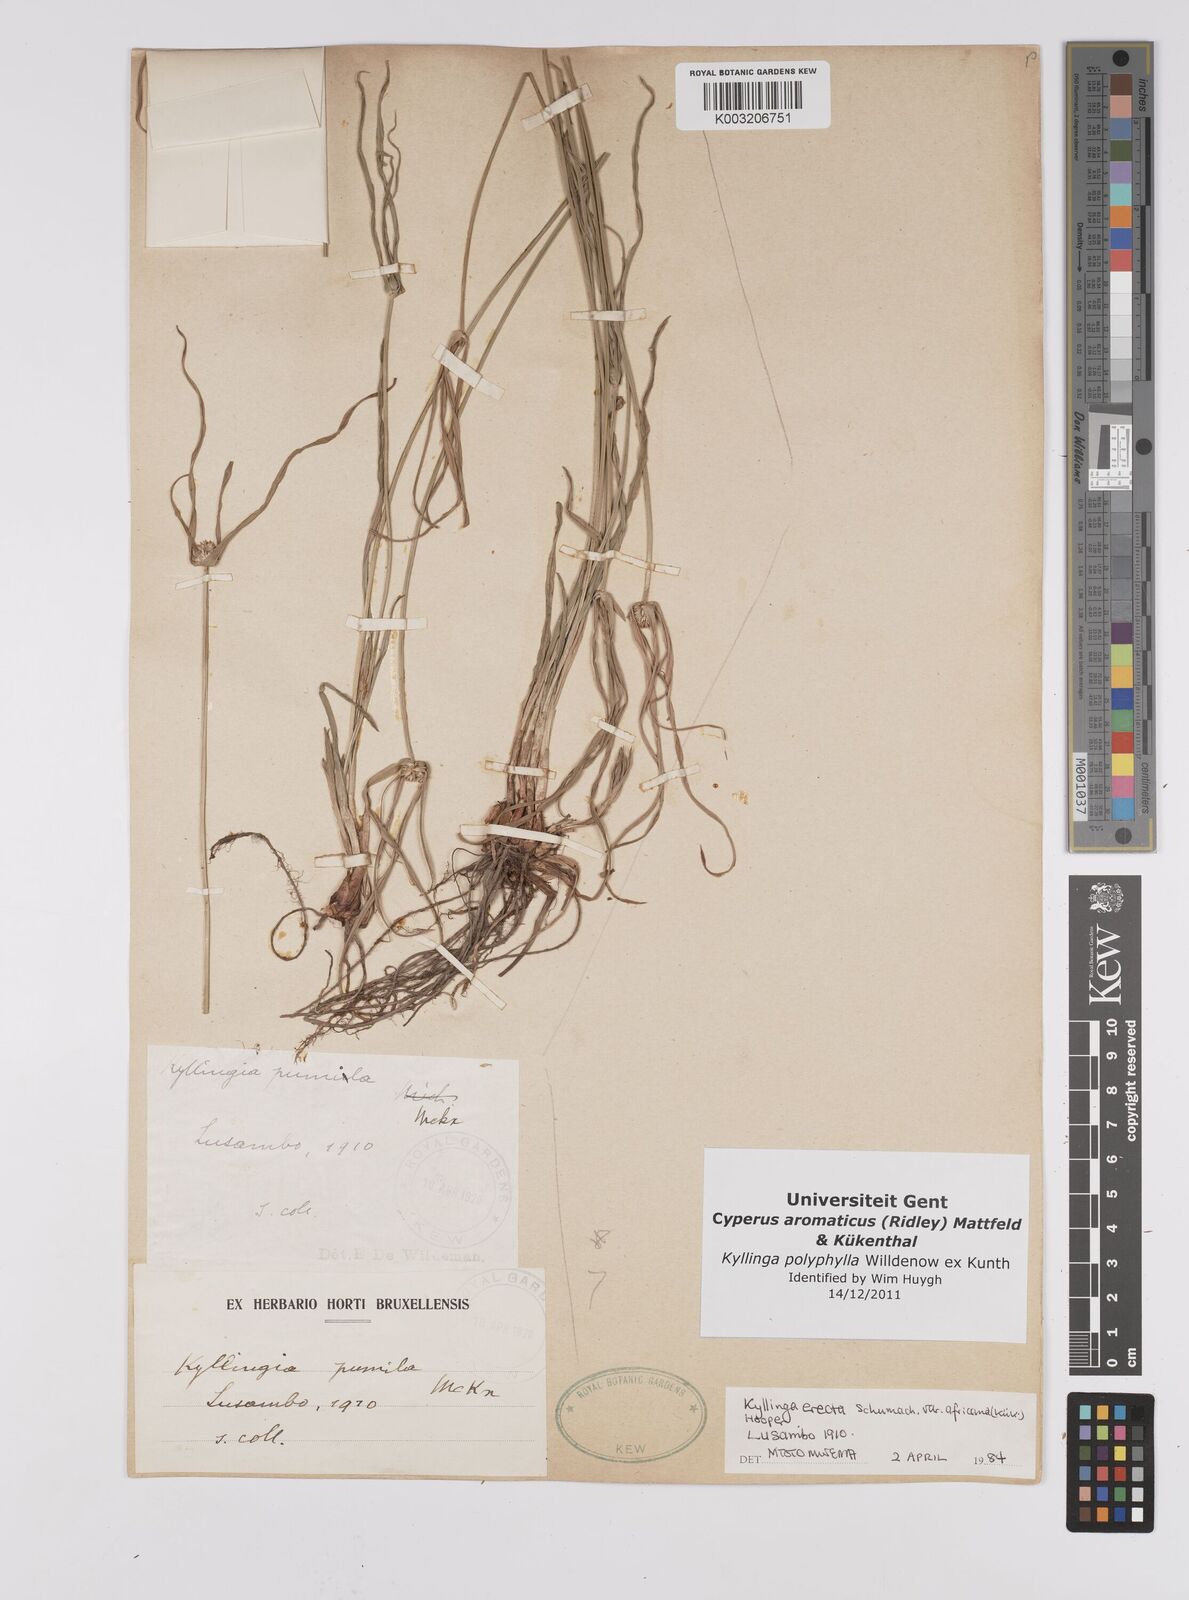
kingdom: Plantae
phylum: Tracheophyta
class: Liliopsida
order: Poales
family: Cyperaceae
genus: Cyperus
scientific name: Cyperus
